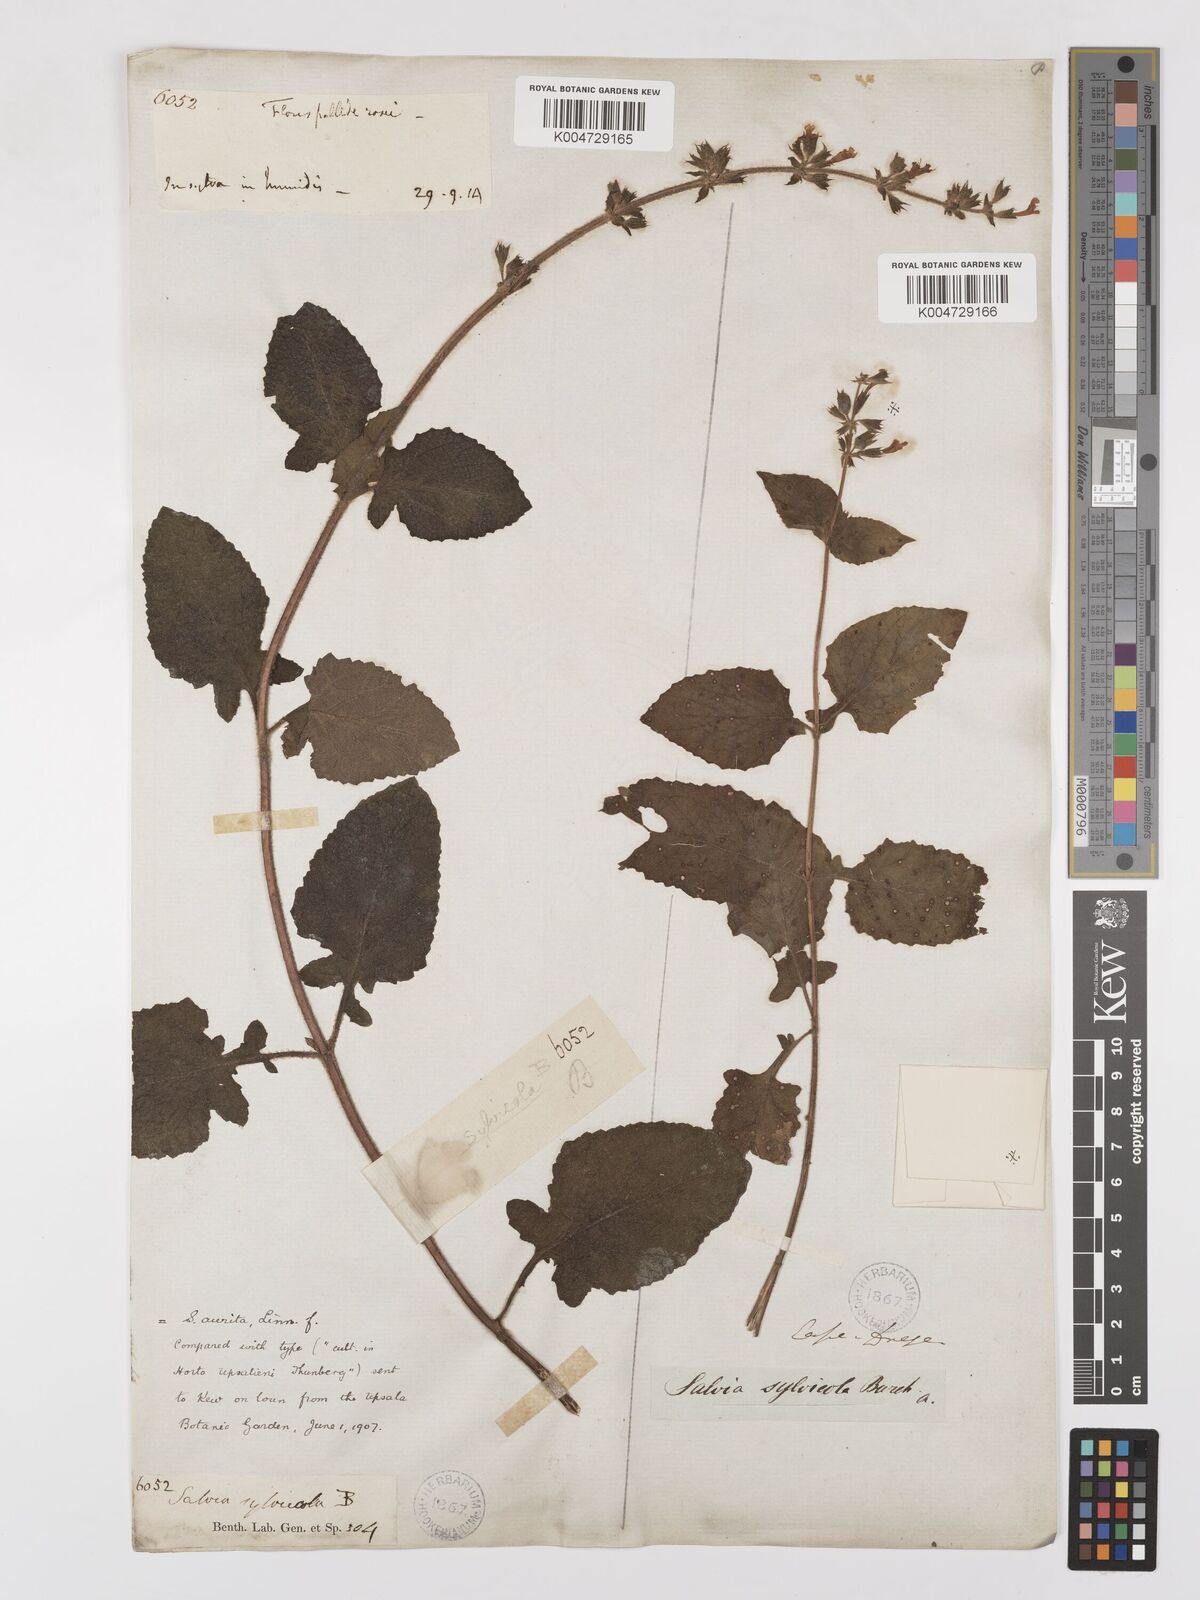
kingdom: Plantae
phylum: Tracheophyta
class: Magnoliopsida
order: Lamiales
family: Lamiaceae
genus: Salvia
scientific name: Salvia aurita
